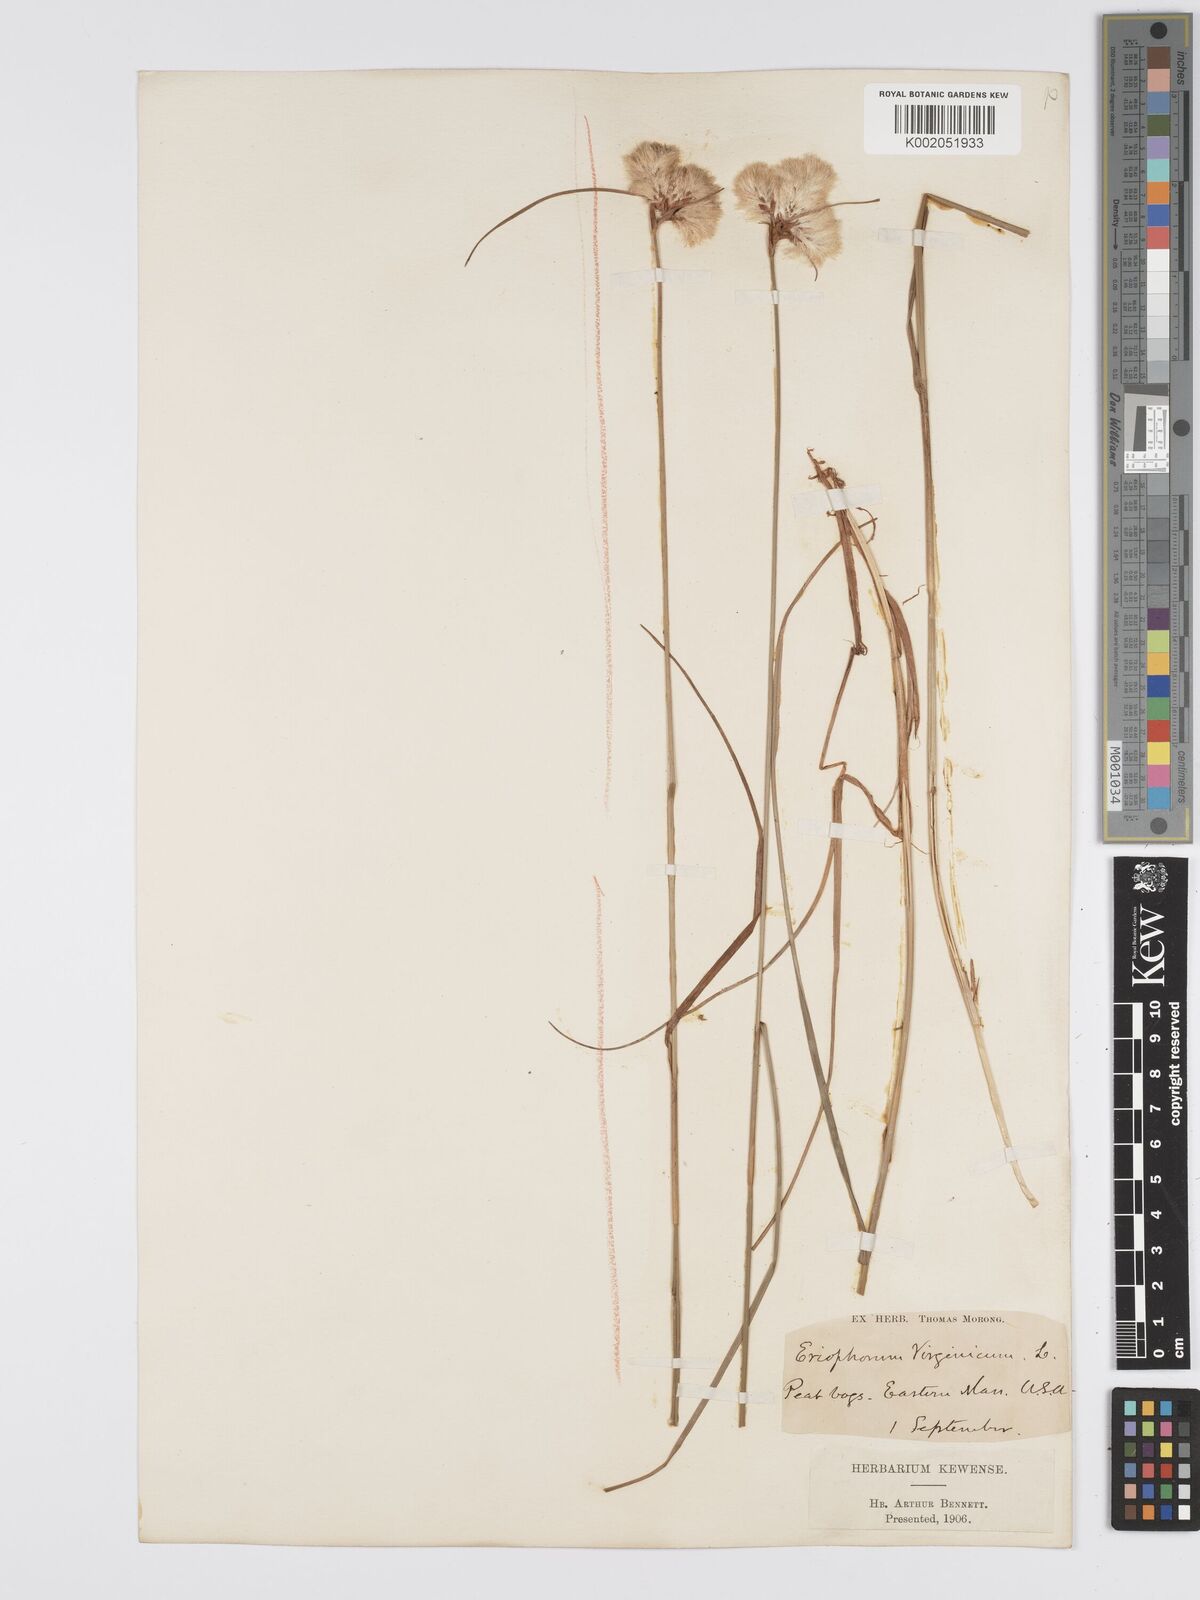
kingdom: Plantae
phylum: Tracheophyta
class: Liliopsida
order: Poales
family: Cyperaceae
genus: Eriophorum
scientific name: Eriophorum virginicum
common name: Tawny cottongrass
